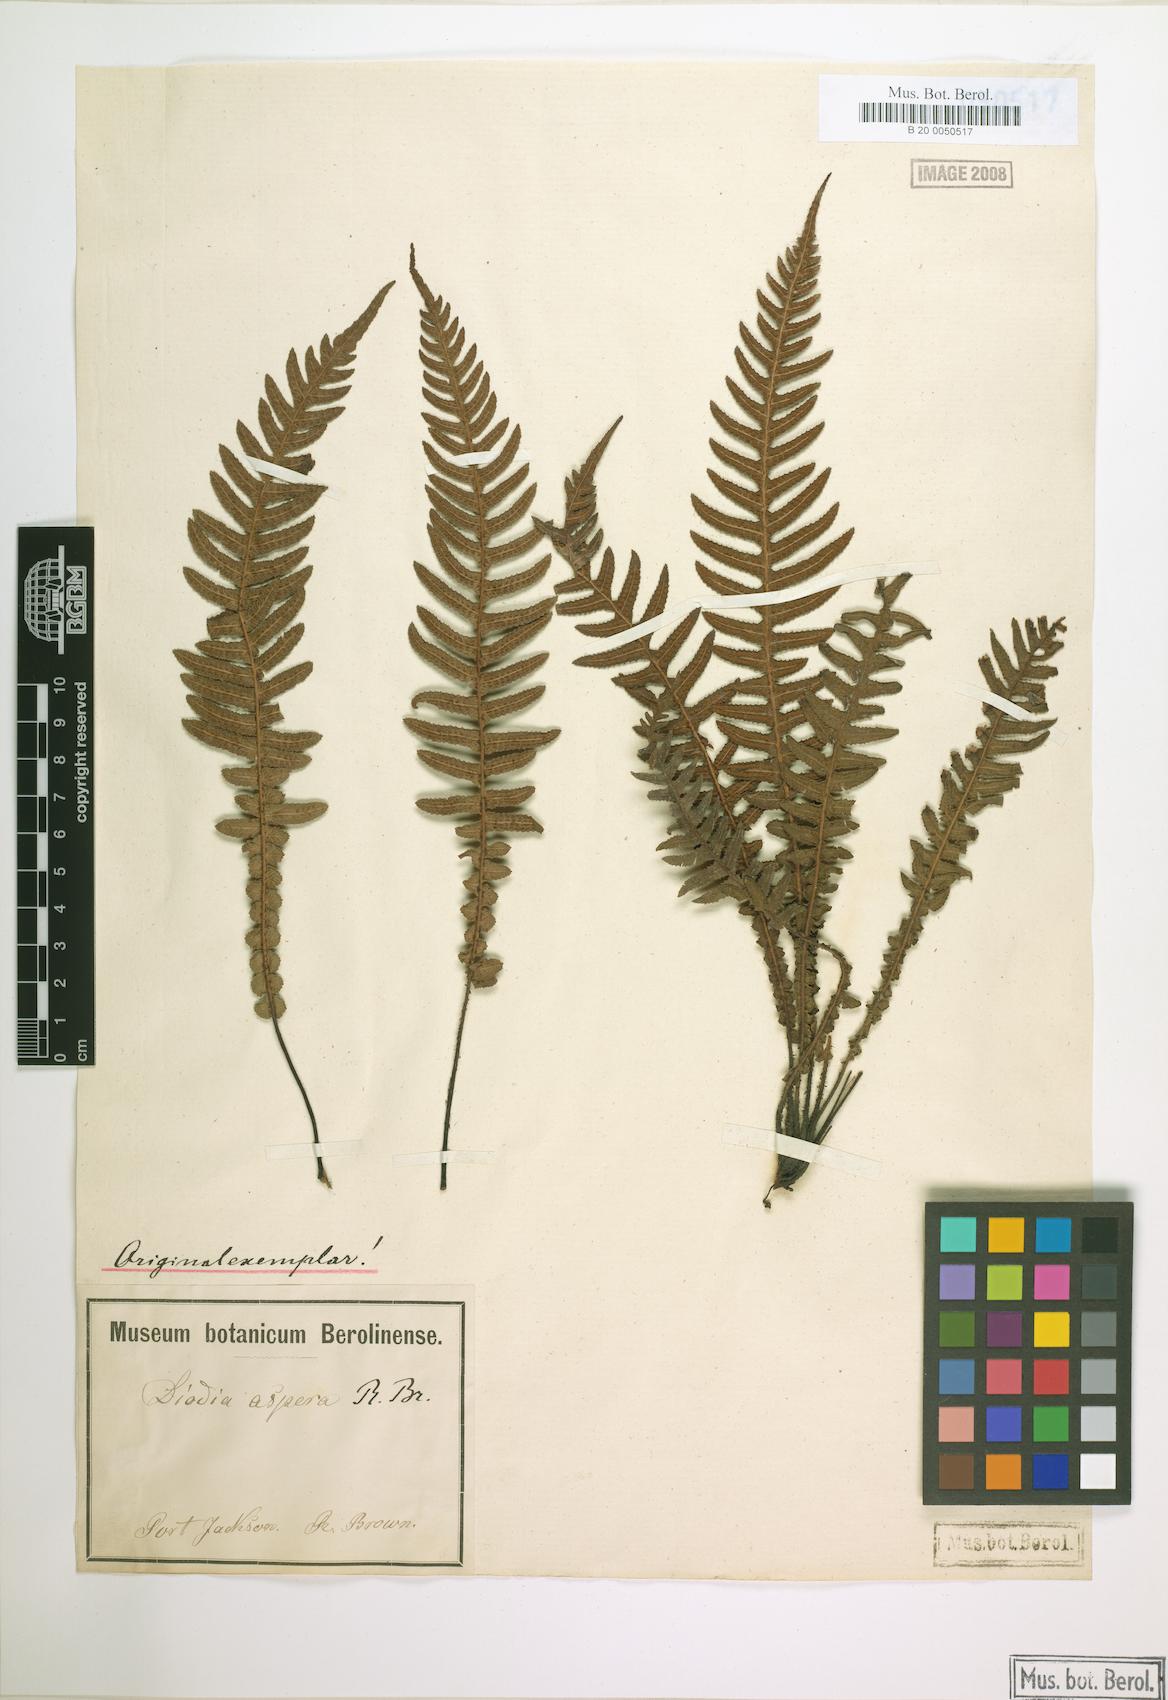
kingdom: Plantae
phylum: Tracheophyta
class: Polypodiopsida
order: Polypodiales
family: Blechnaceae
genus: Doodia
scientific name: Doodia aspera
